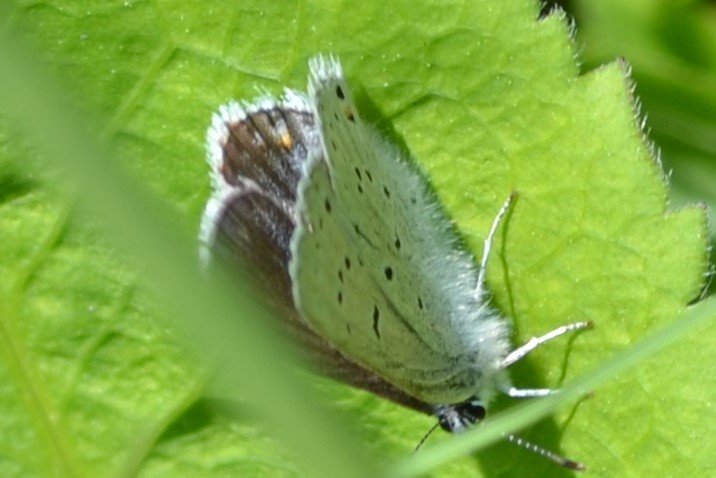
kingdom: Animalia
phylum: Arthropoda
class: Insecta
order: Lepidoptera
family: Lycaenidae
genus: Elkalyce
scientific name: Elkalyce amyntula
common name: Western Tailed-Blue
